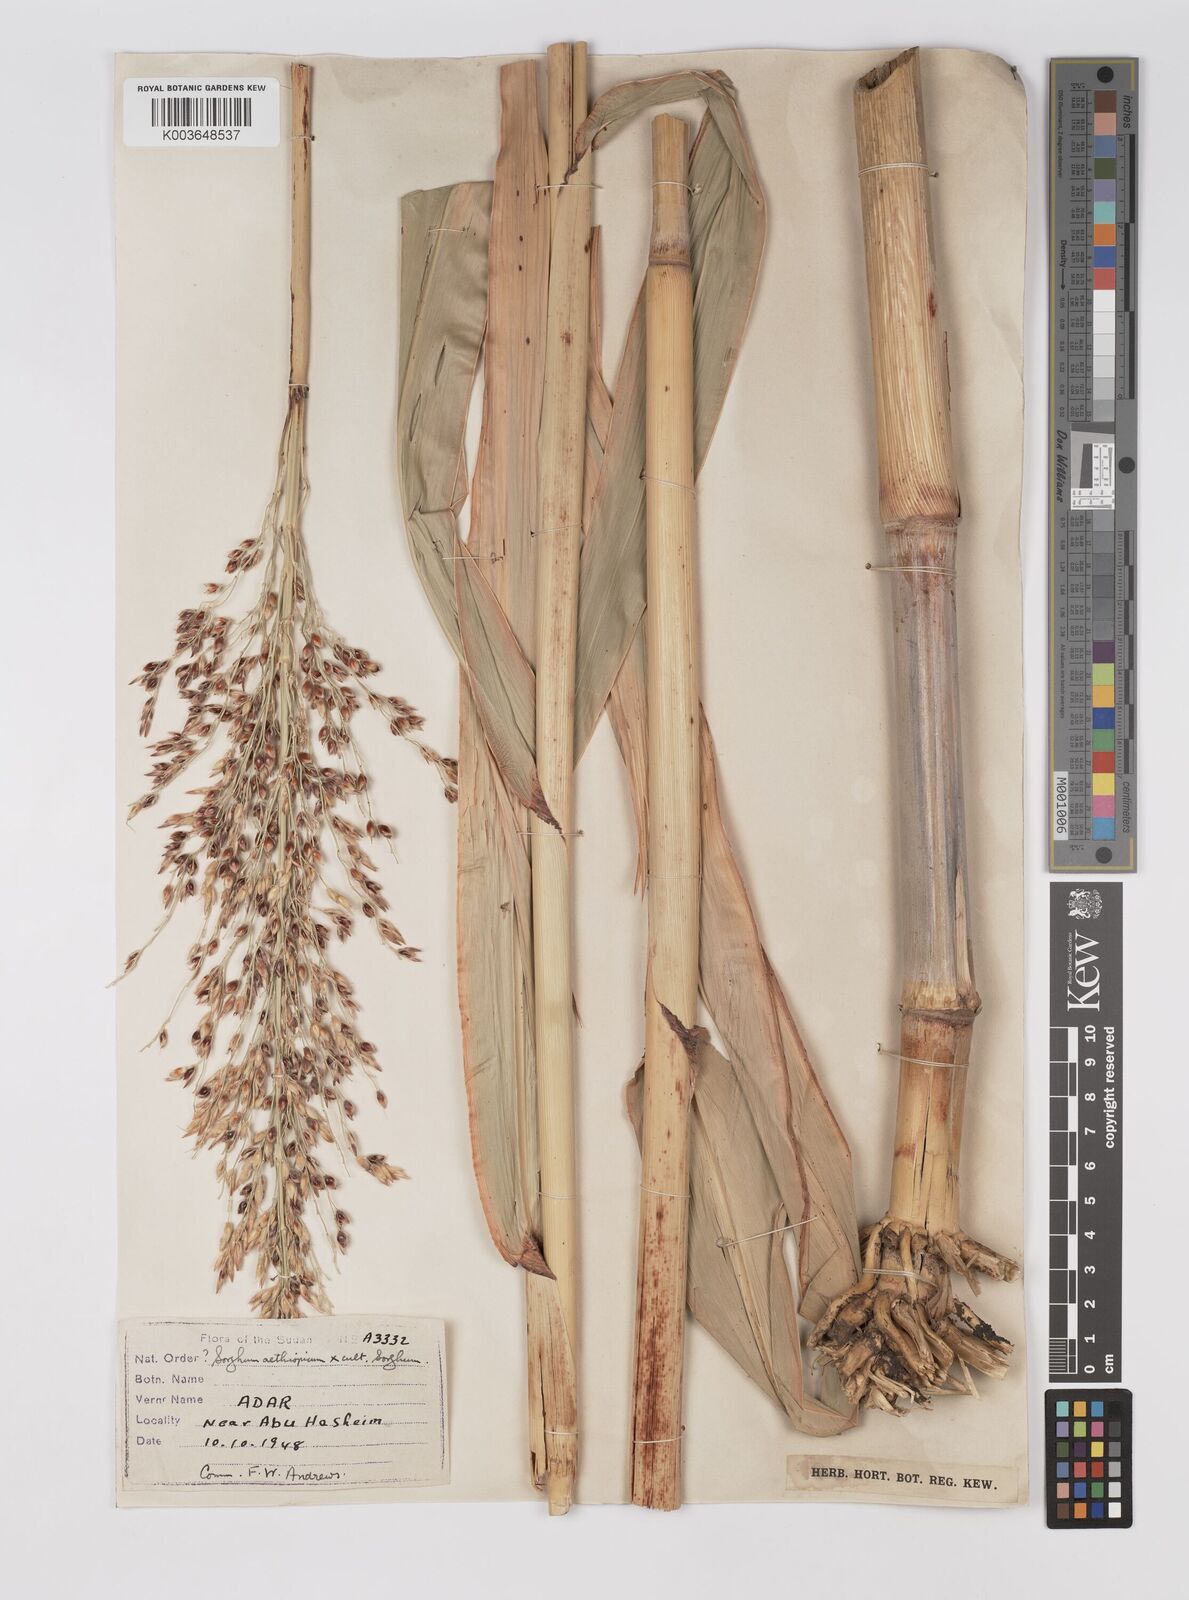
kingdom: Plantae
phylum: Tracheophyta
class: Liliopsida
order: Poales
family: Poaceae
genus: Sorghum
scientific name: Sorghum drummondii
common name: Sudangrass
